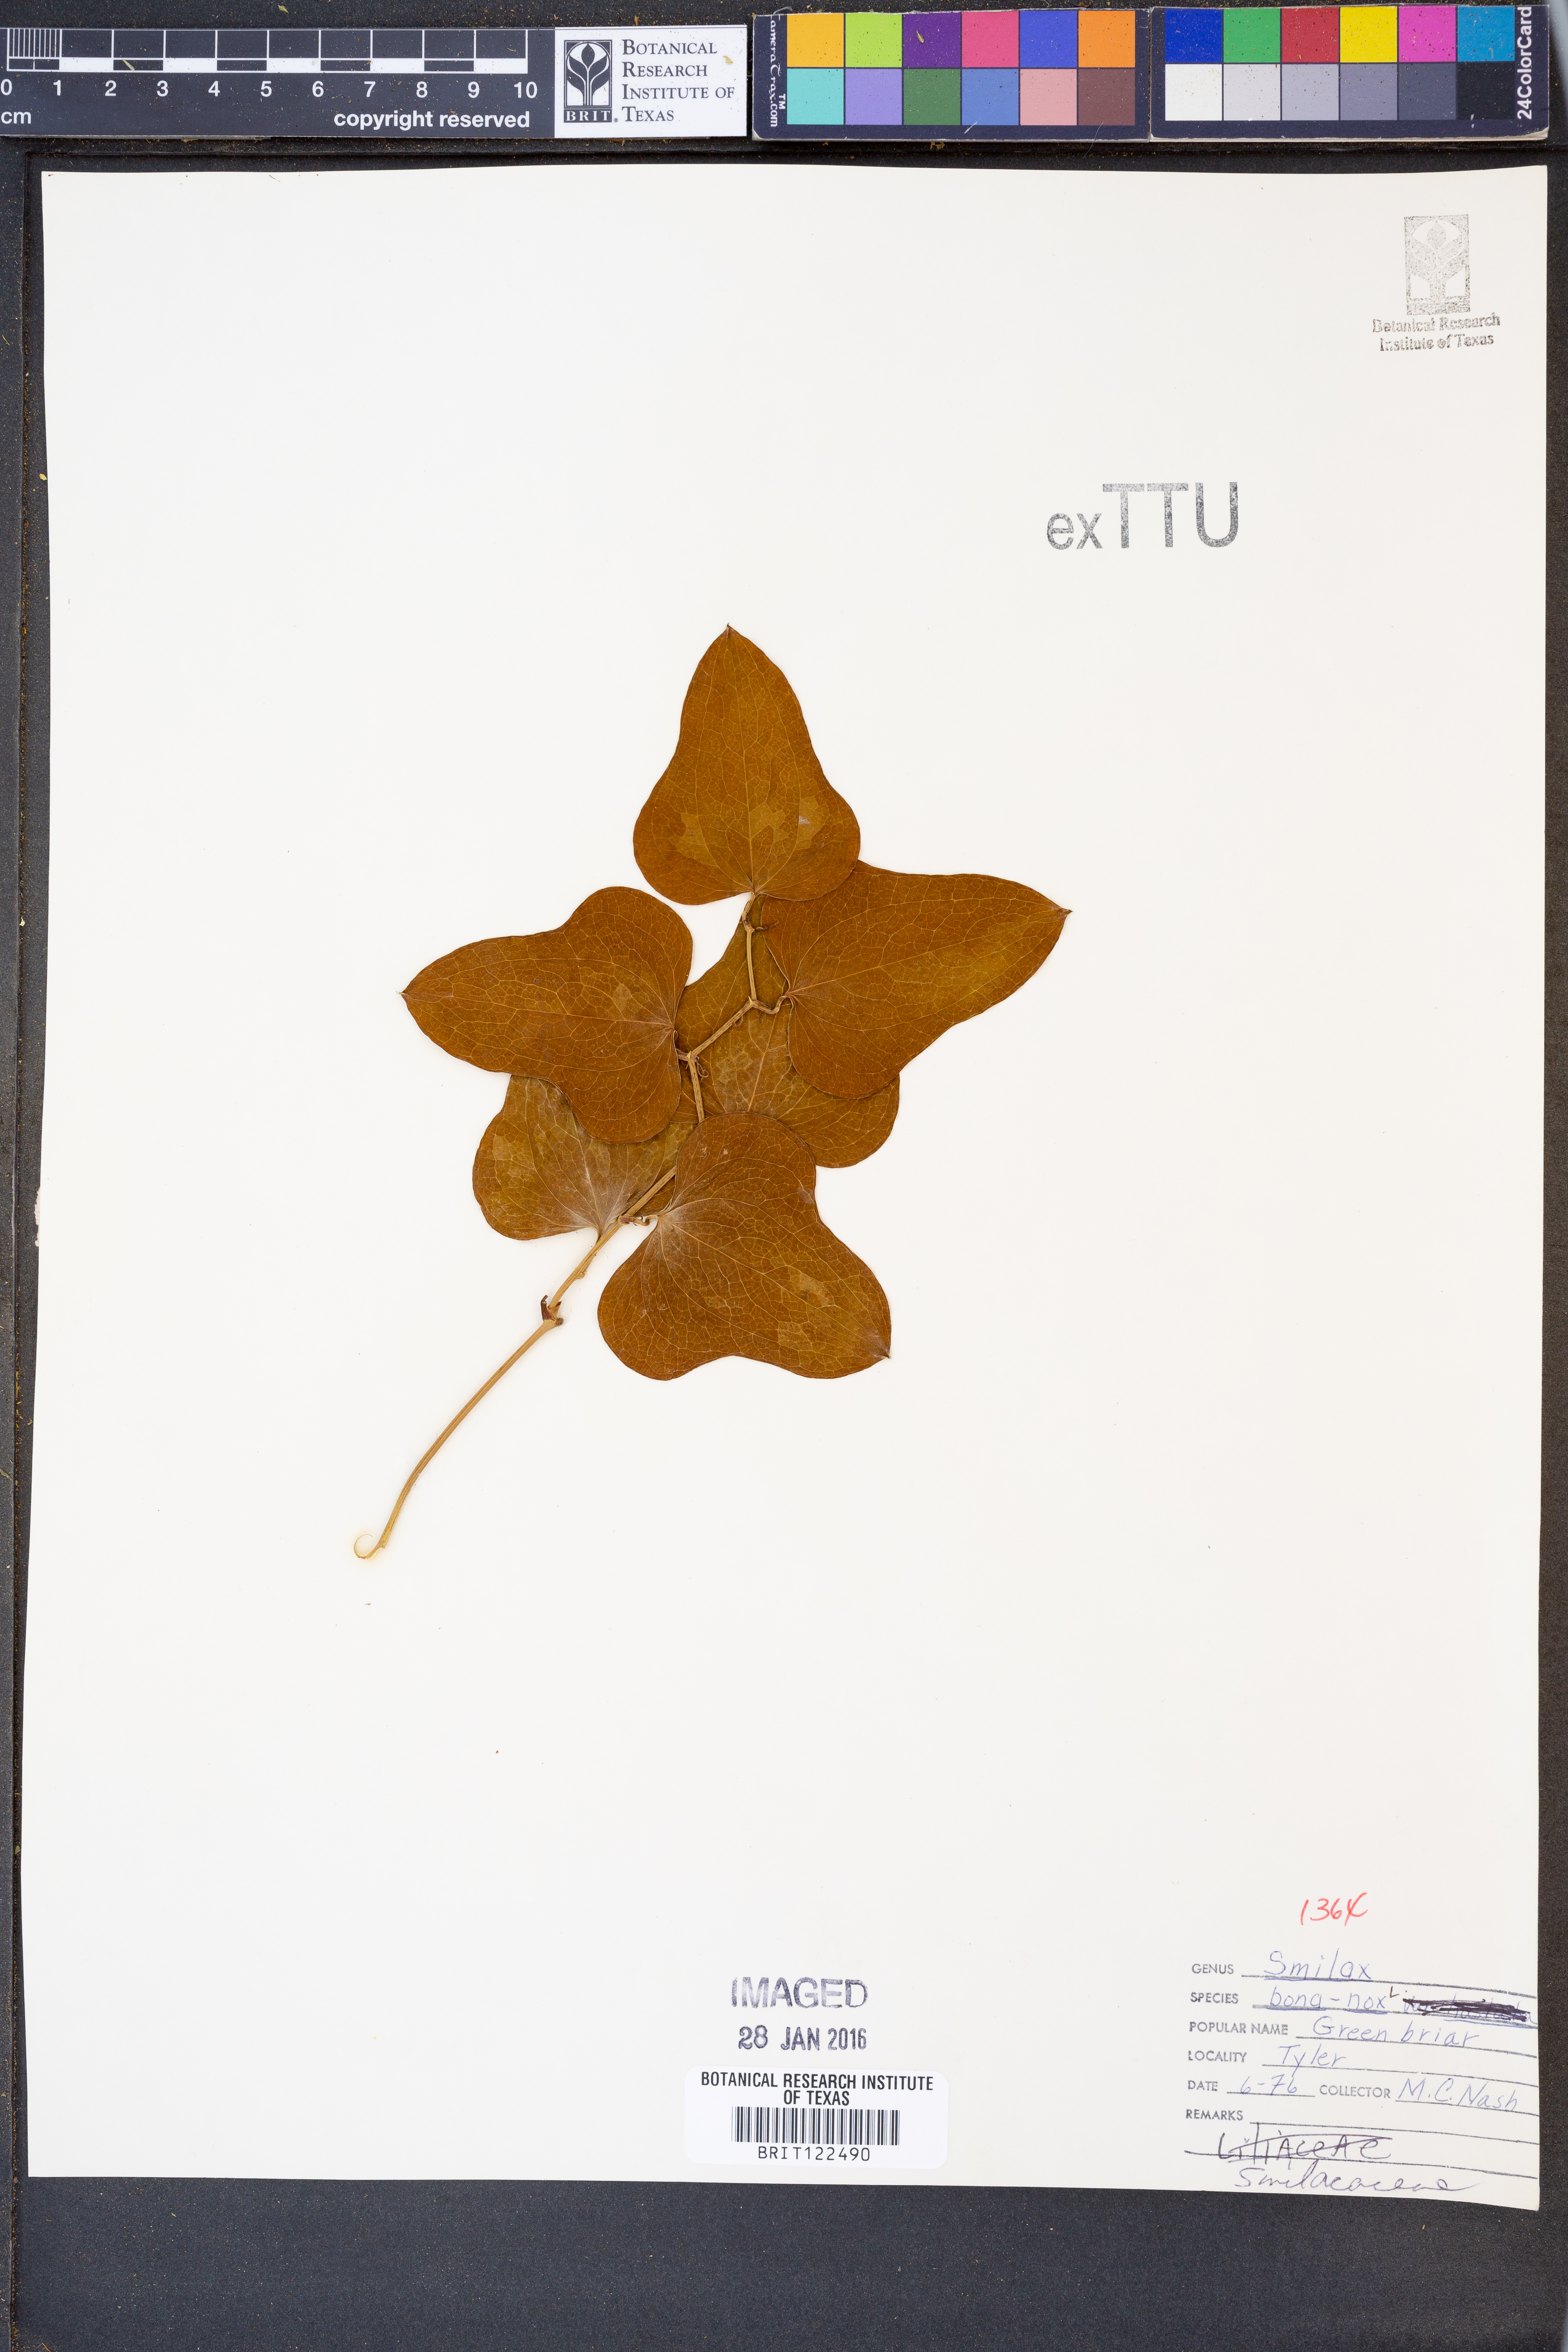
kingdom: Plantae
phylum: Tracheophyta
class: Liliopsida
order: Liliales
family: Smilacaceae
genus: Smilax
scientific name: Smilax bona-nox
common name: Catbrier
